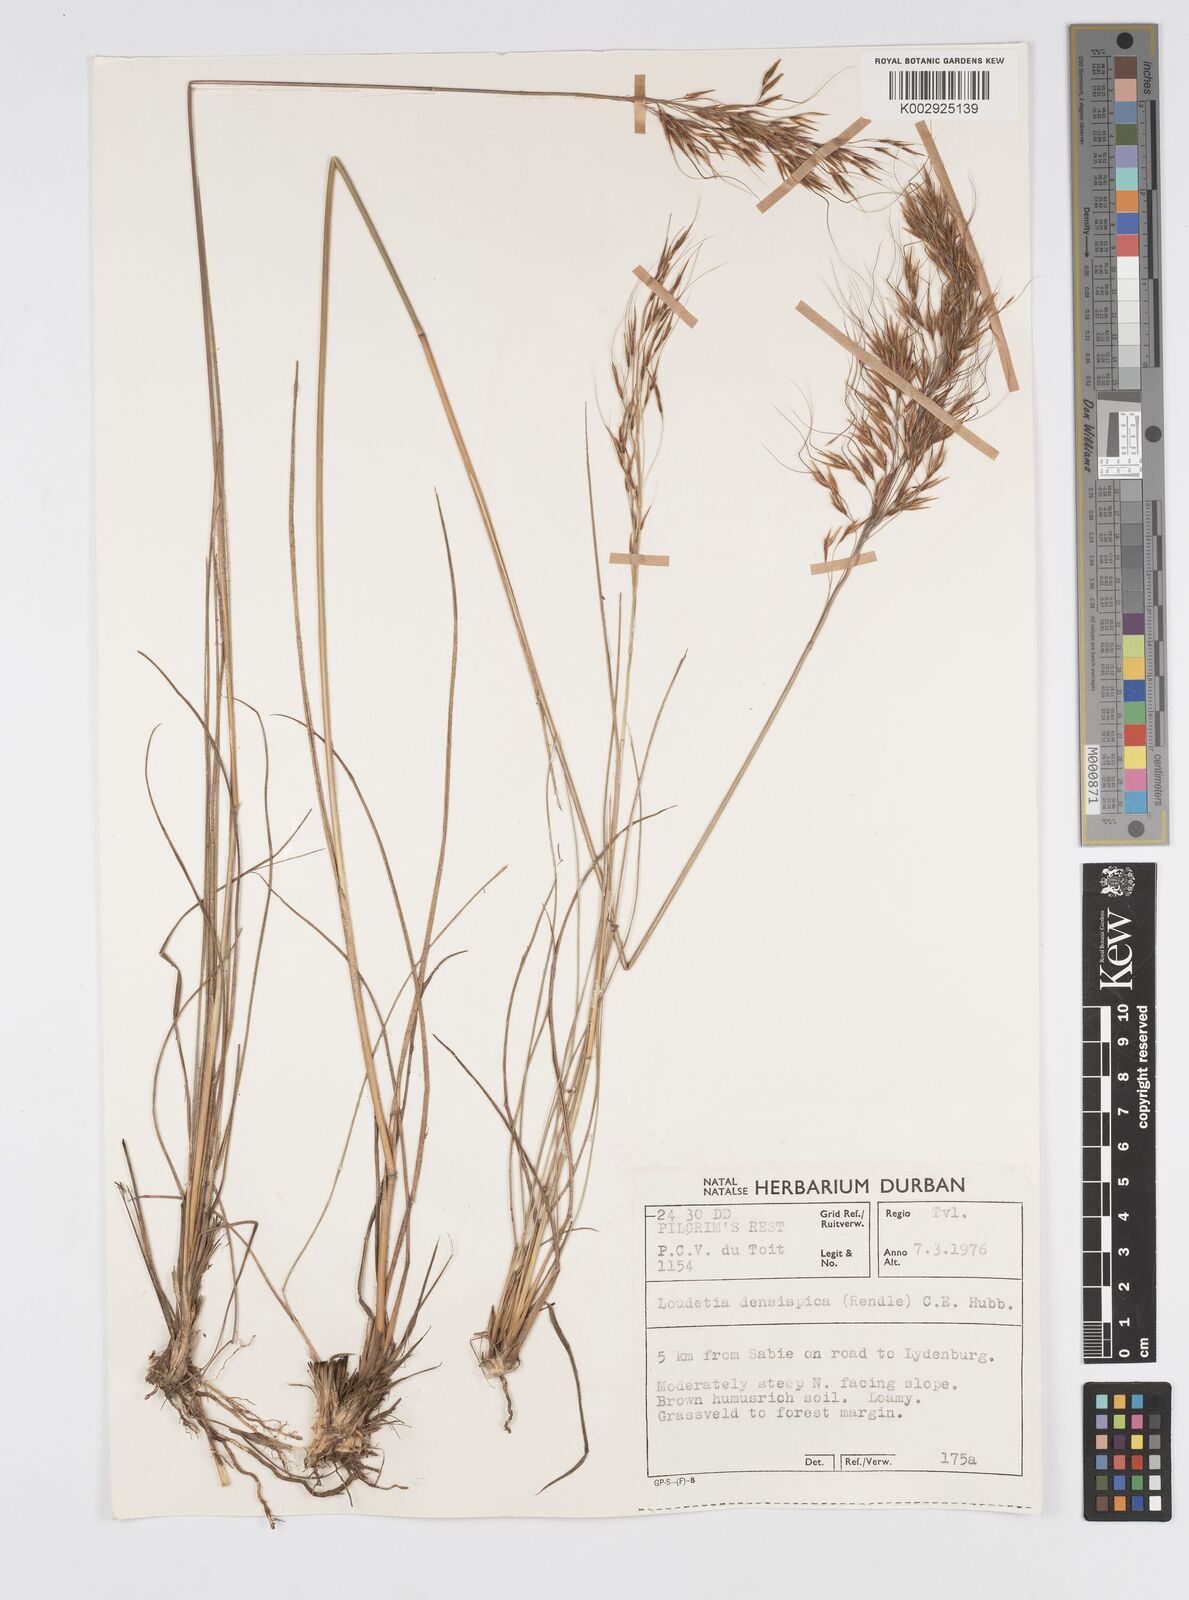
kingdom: Plantae
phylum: Tracheophyta
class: Liliopsida
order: Poales
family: Poaceae
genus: Loudetia
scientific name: Loudetia simplex
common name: Common russet grass
